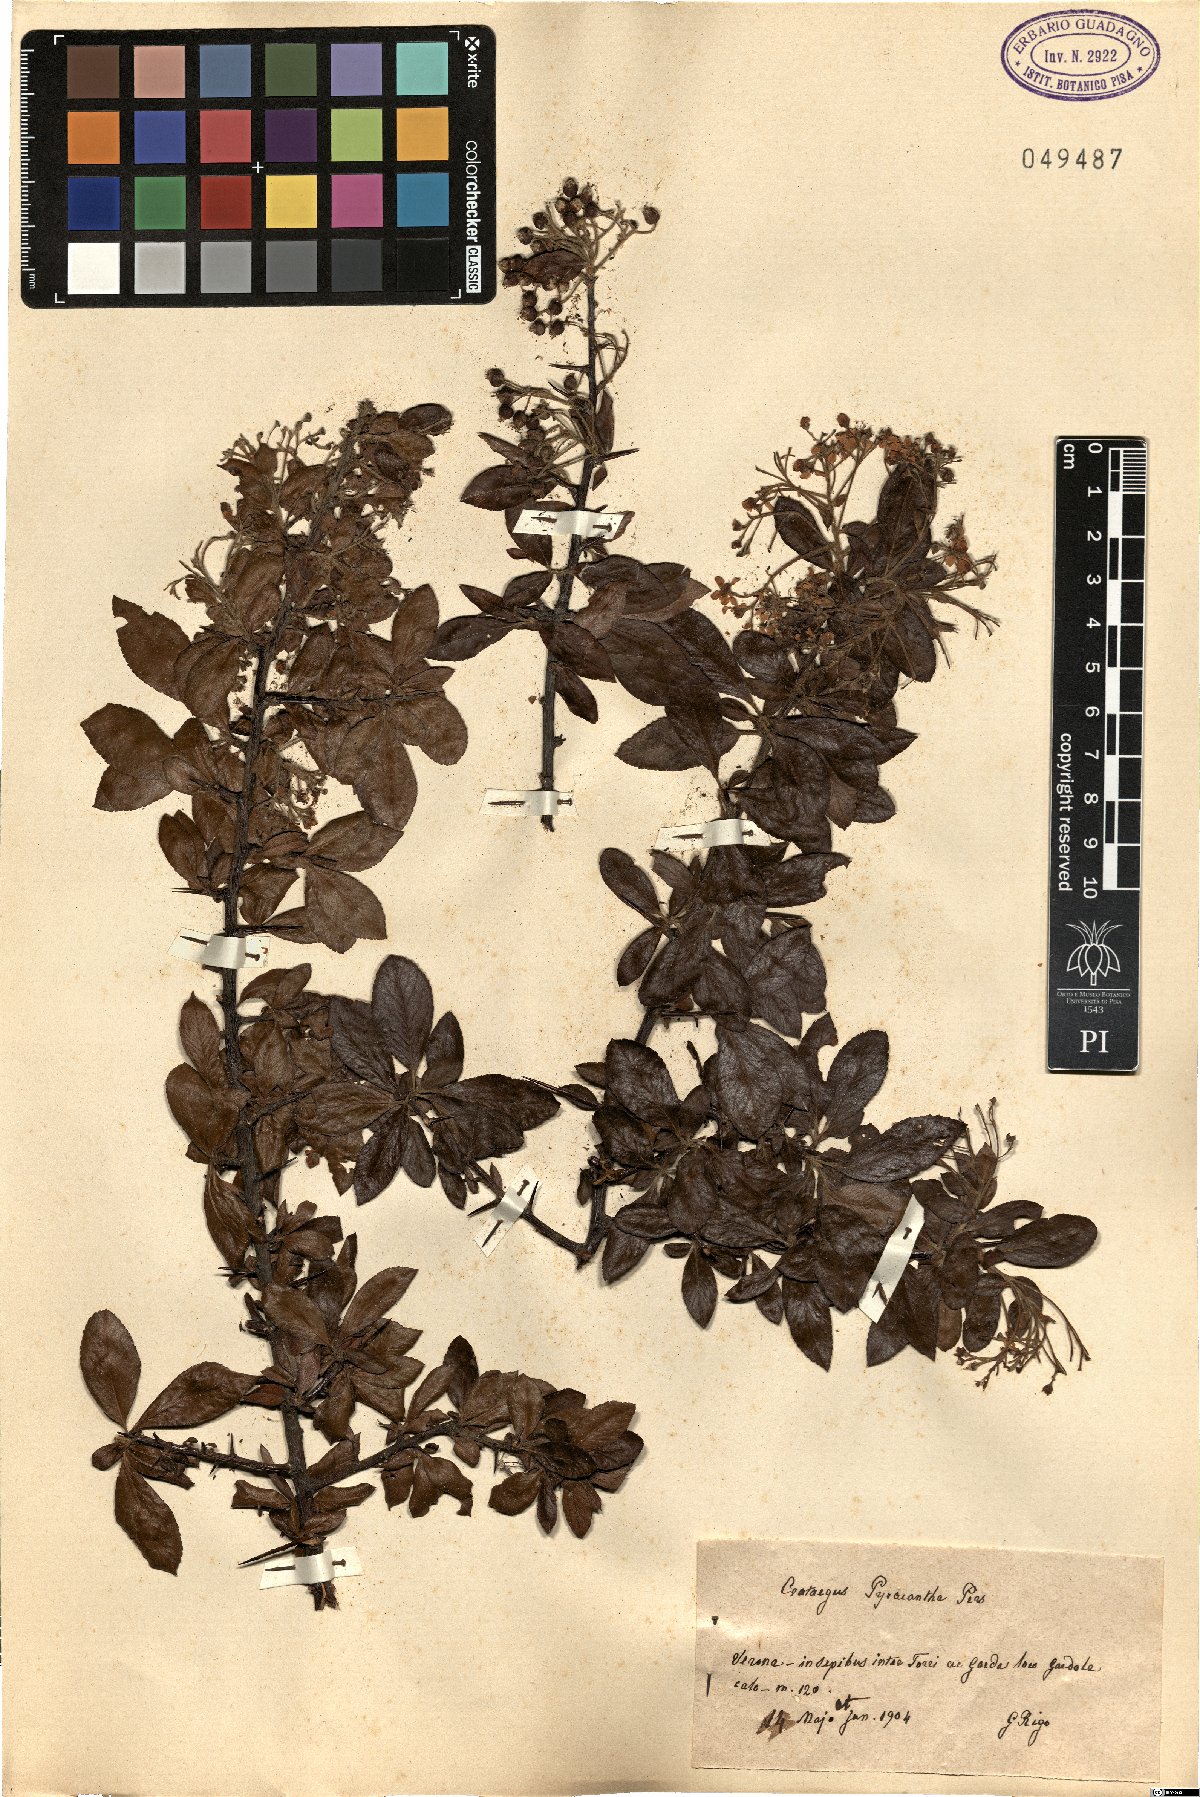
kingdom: Plantae
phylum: Tracheophyta
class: Magnoliopsida
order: Rosales
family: Rosaceae
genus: Pyracantha
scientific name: Pyracantha coccinea
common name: Firethorn
